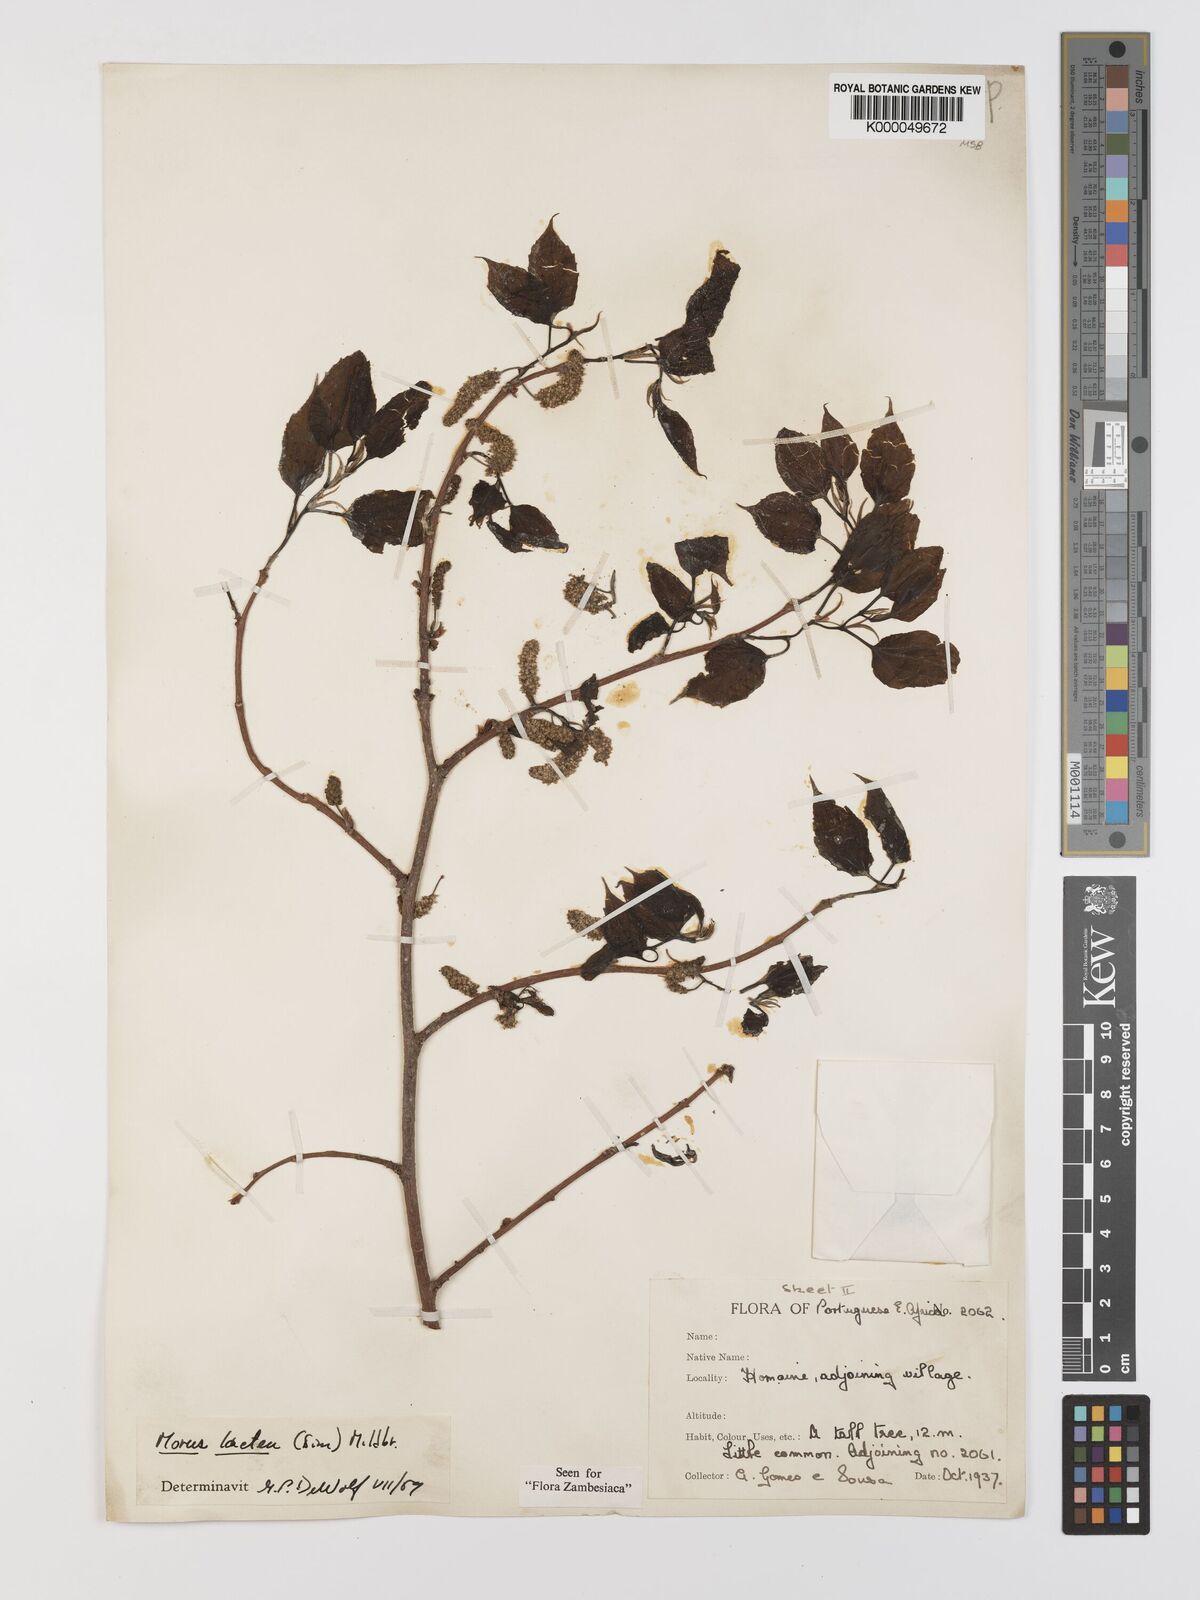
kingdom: Plantae
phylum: Tracheophyta
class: Magnoliopsida
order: Rosales
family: Moraceae
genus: Afromorus
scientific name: Afromorus mesozygia
